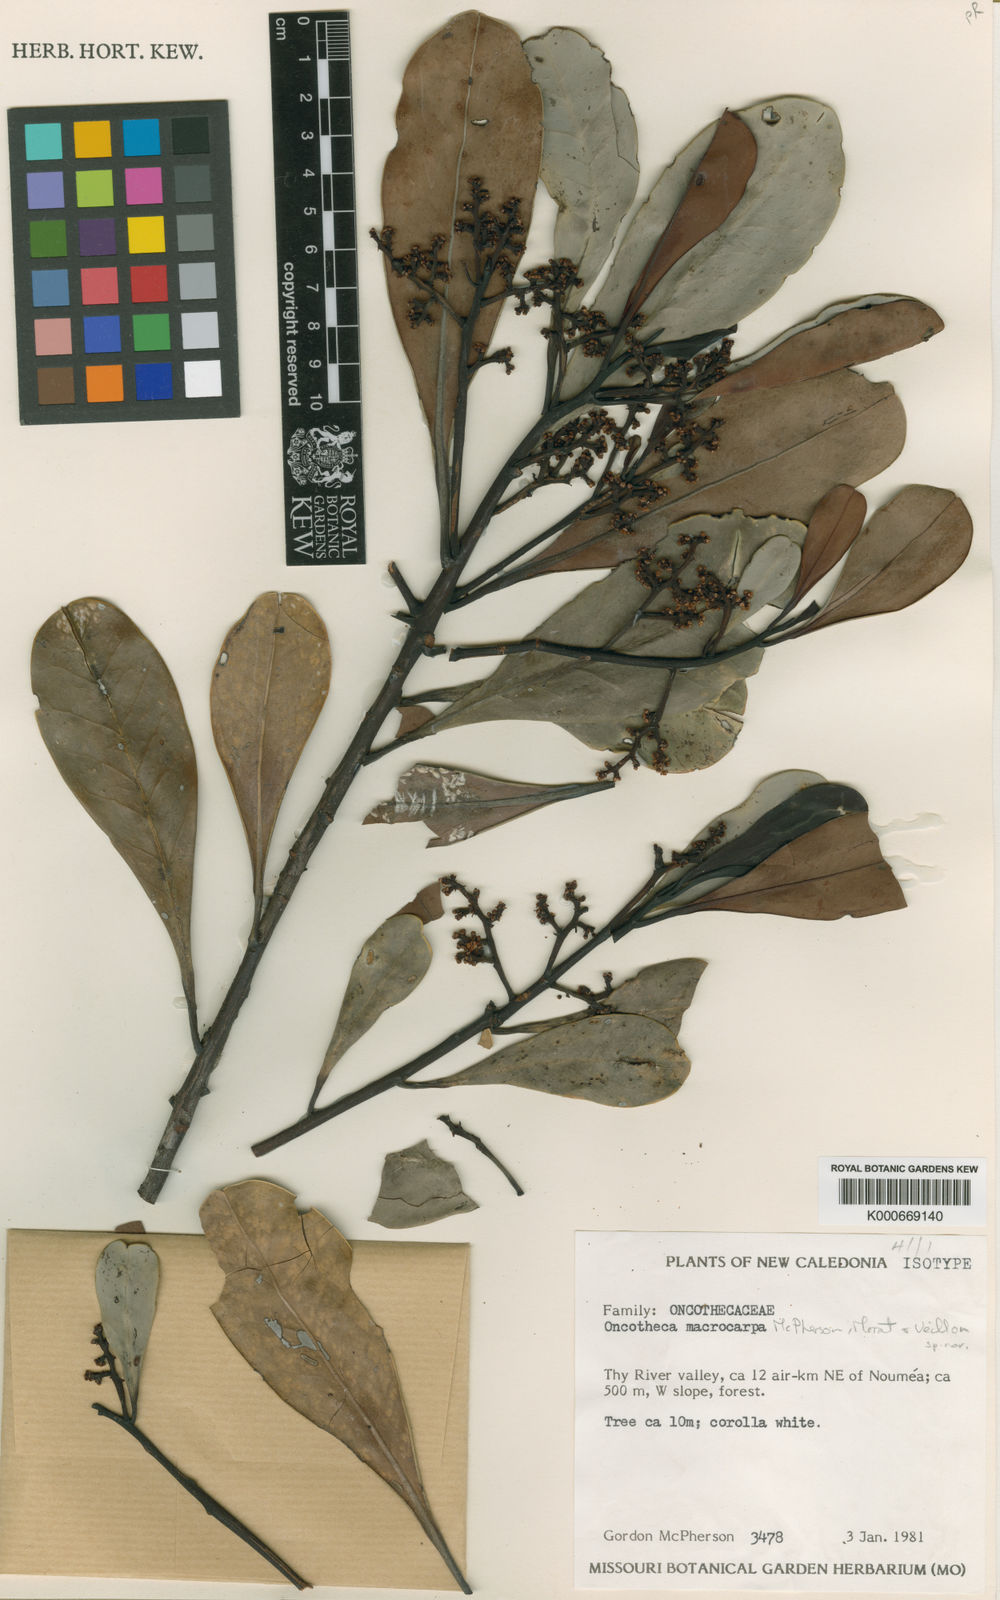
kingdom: Plantae
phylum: Tracheophyta
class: Magnoliopsida
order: Icacinales
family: Oncothecaceae
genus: Oncotheca
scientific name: Oncotheca humboldtiana
